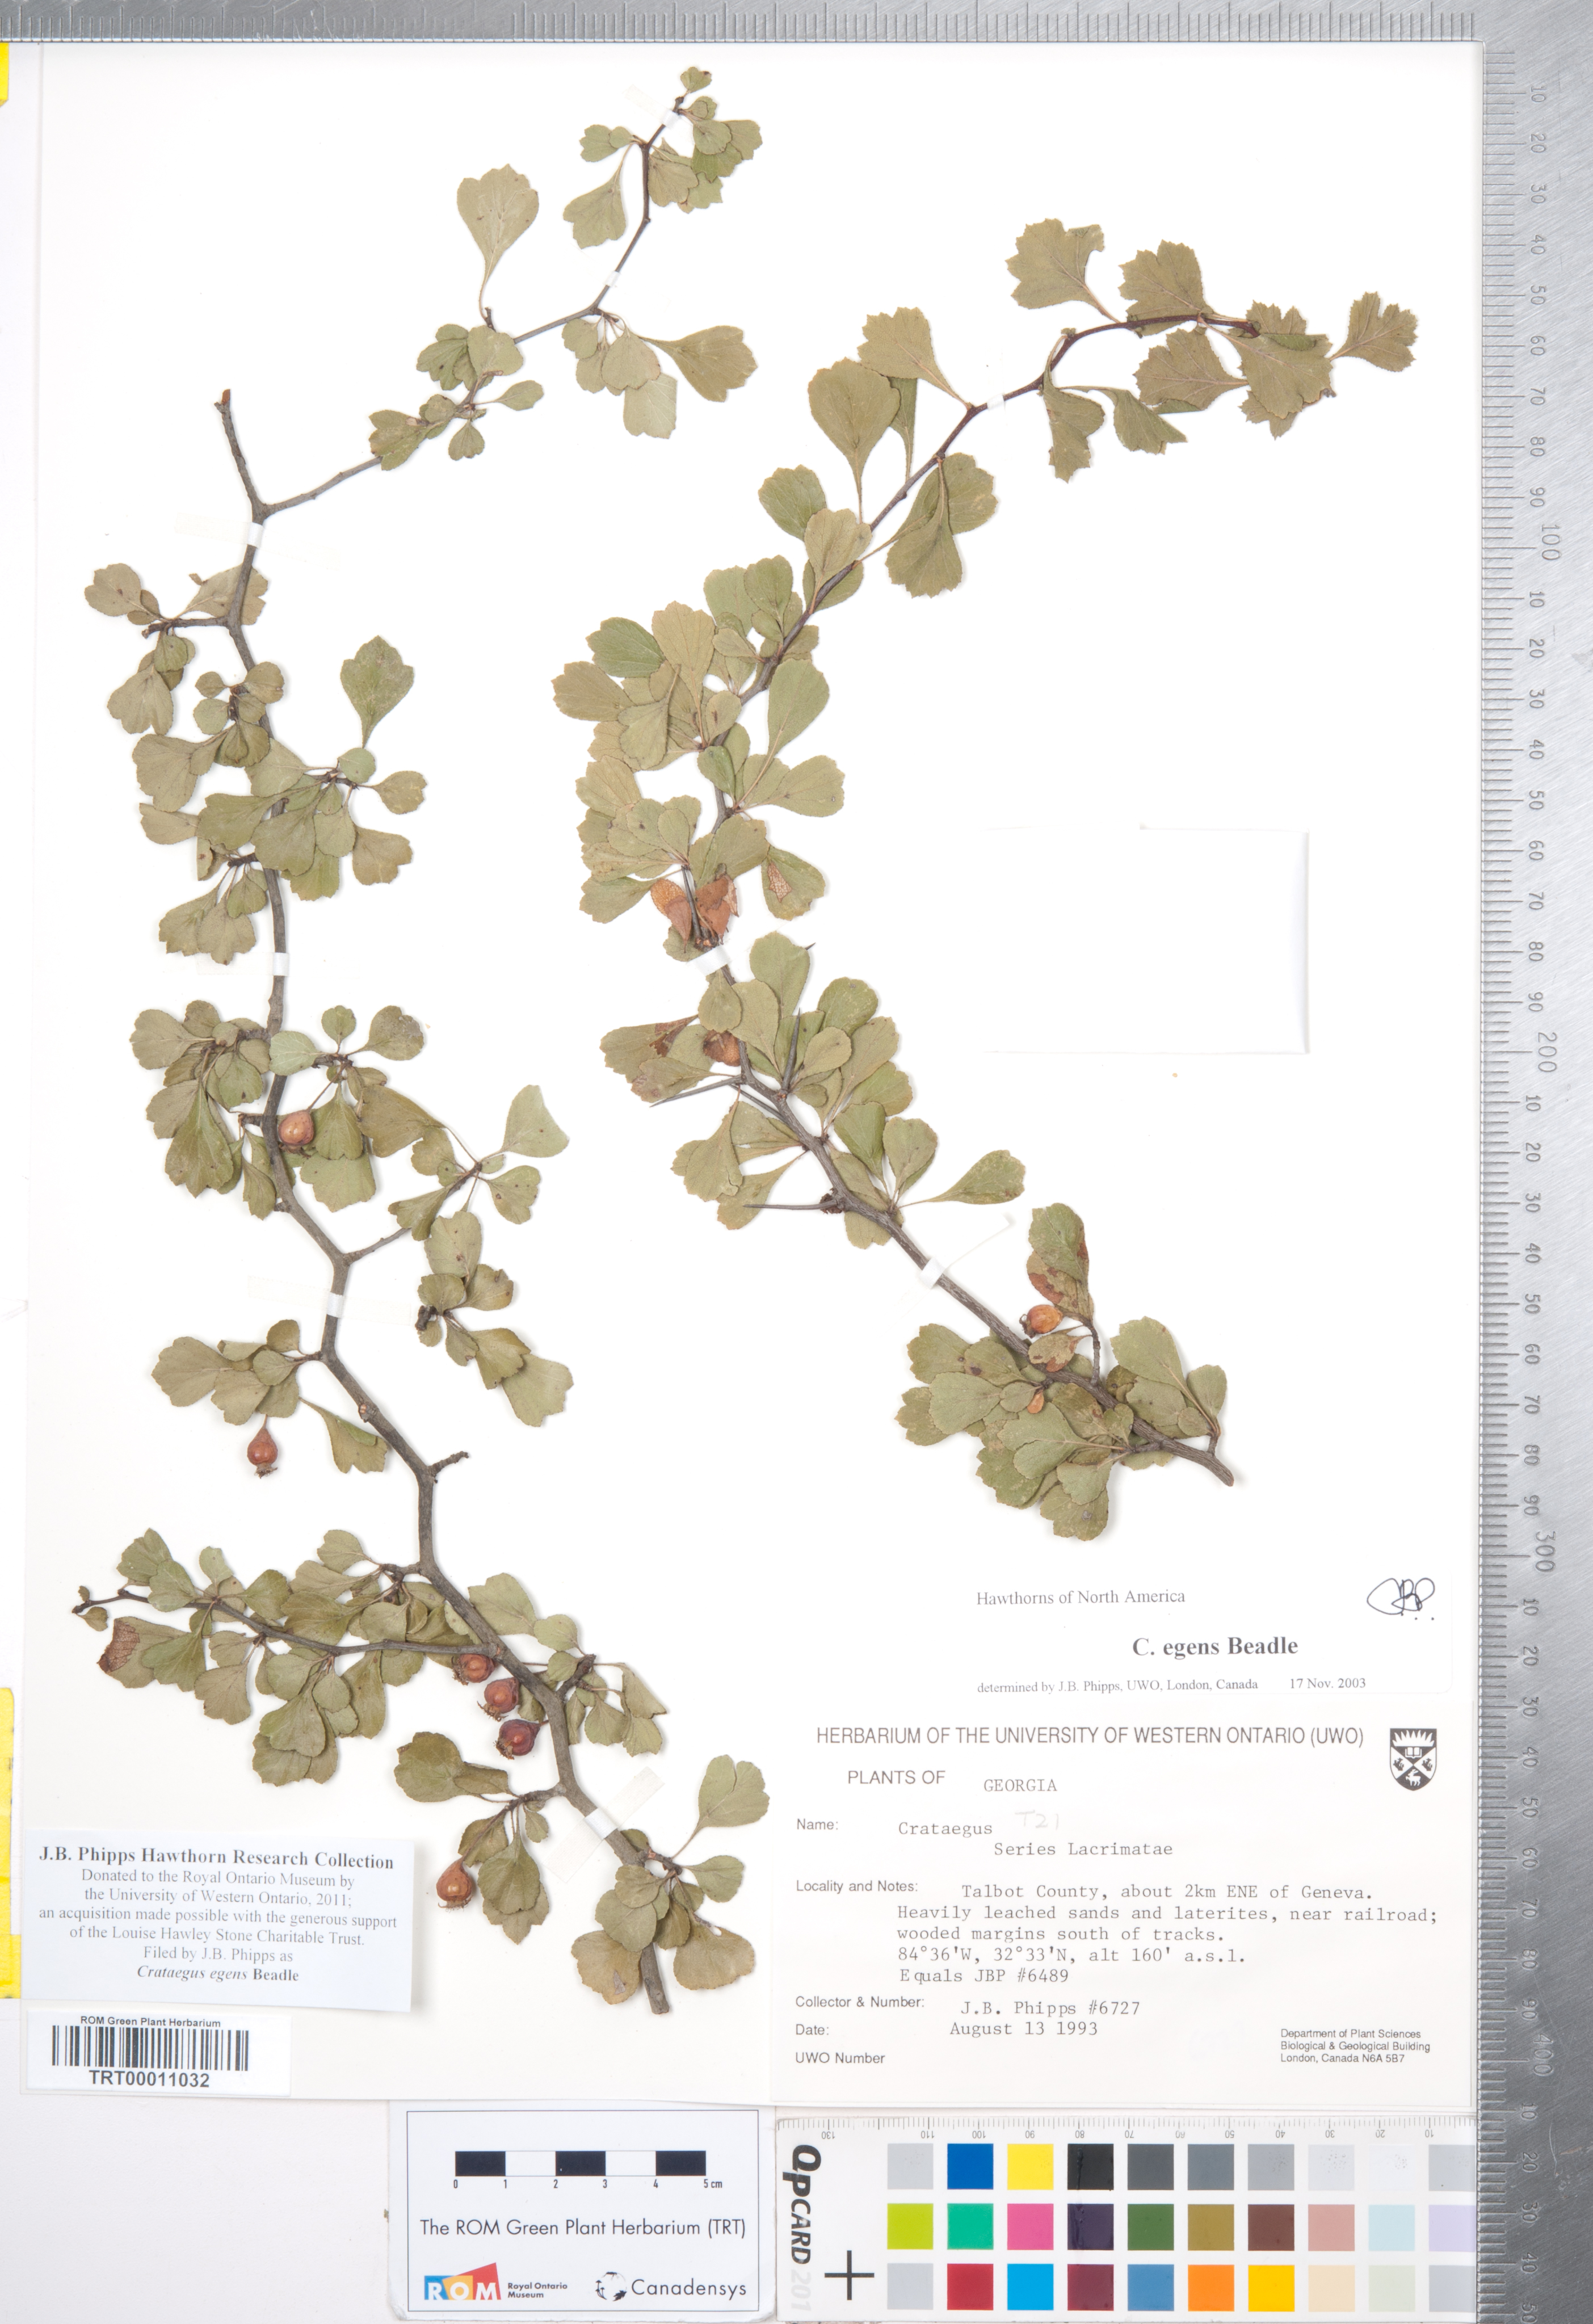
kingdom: Plantae
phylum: Tracheophyta
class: Magnoliopsida
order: Rosales
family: Rosaceae
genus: Crataegus
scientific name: Crataegus senta
